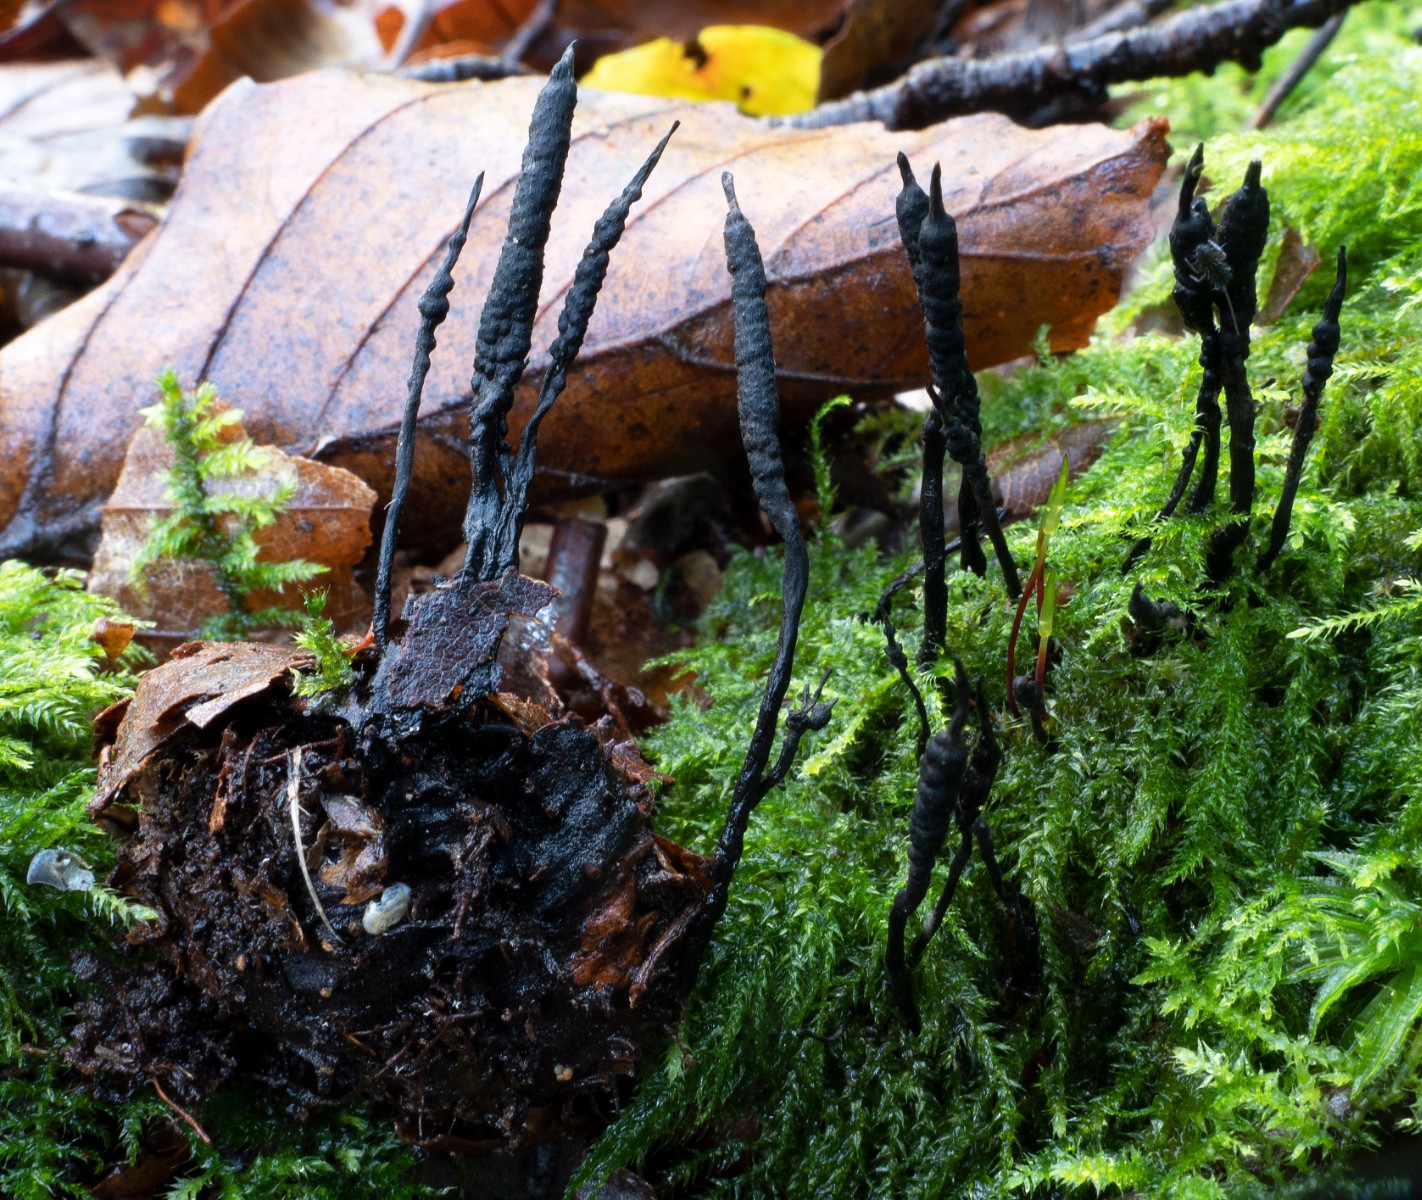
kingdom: Fungi
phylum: Ascomycota
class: Sordariomycetes
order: Xylariales
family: Xylariaceae
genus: Xylaria
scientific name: Xylaria carpophila
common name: bogskål-stødsvamp
